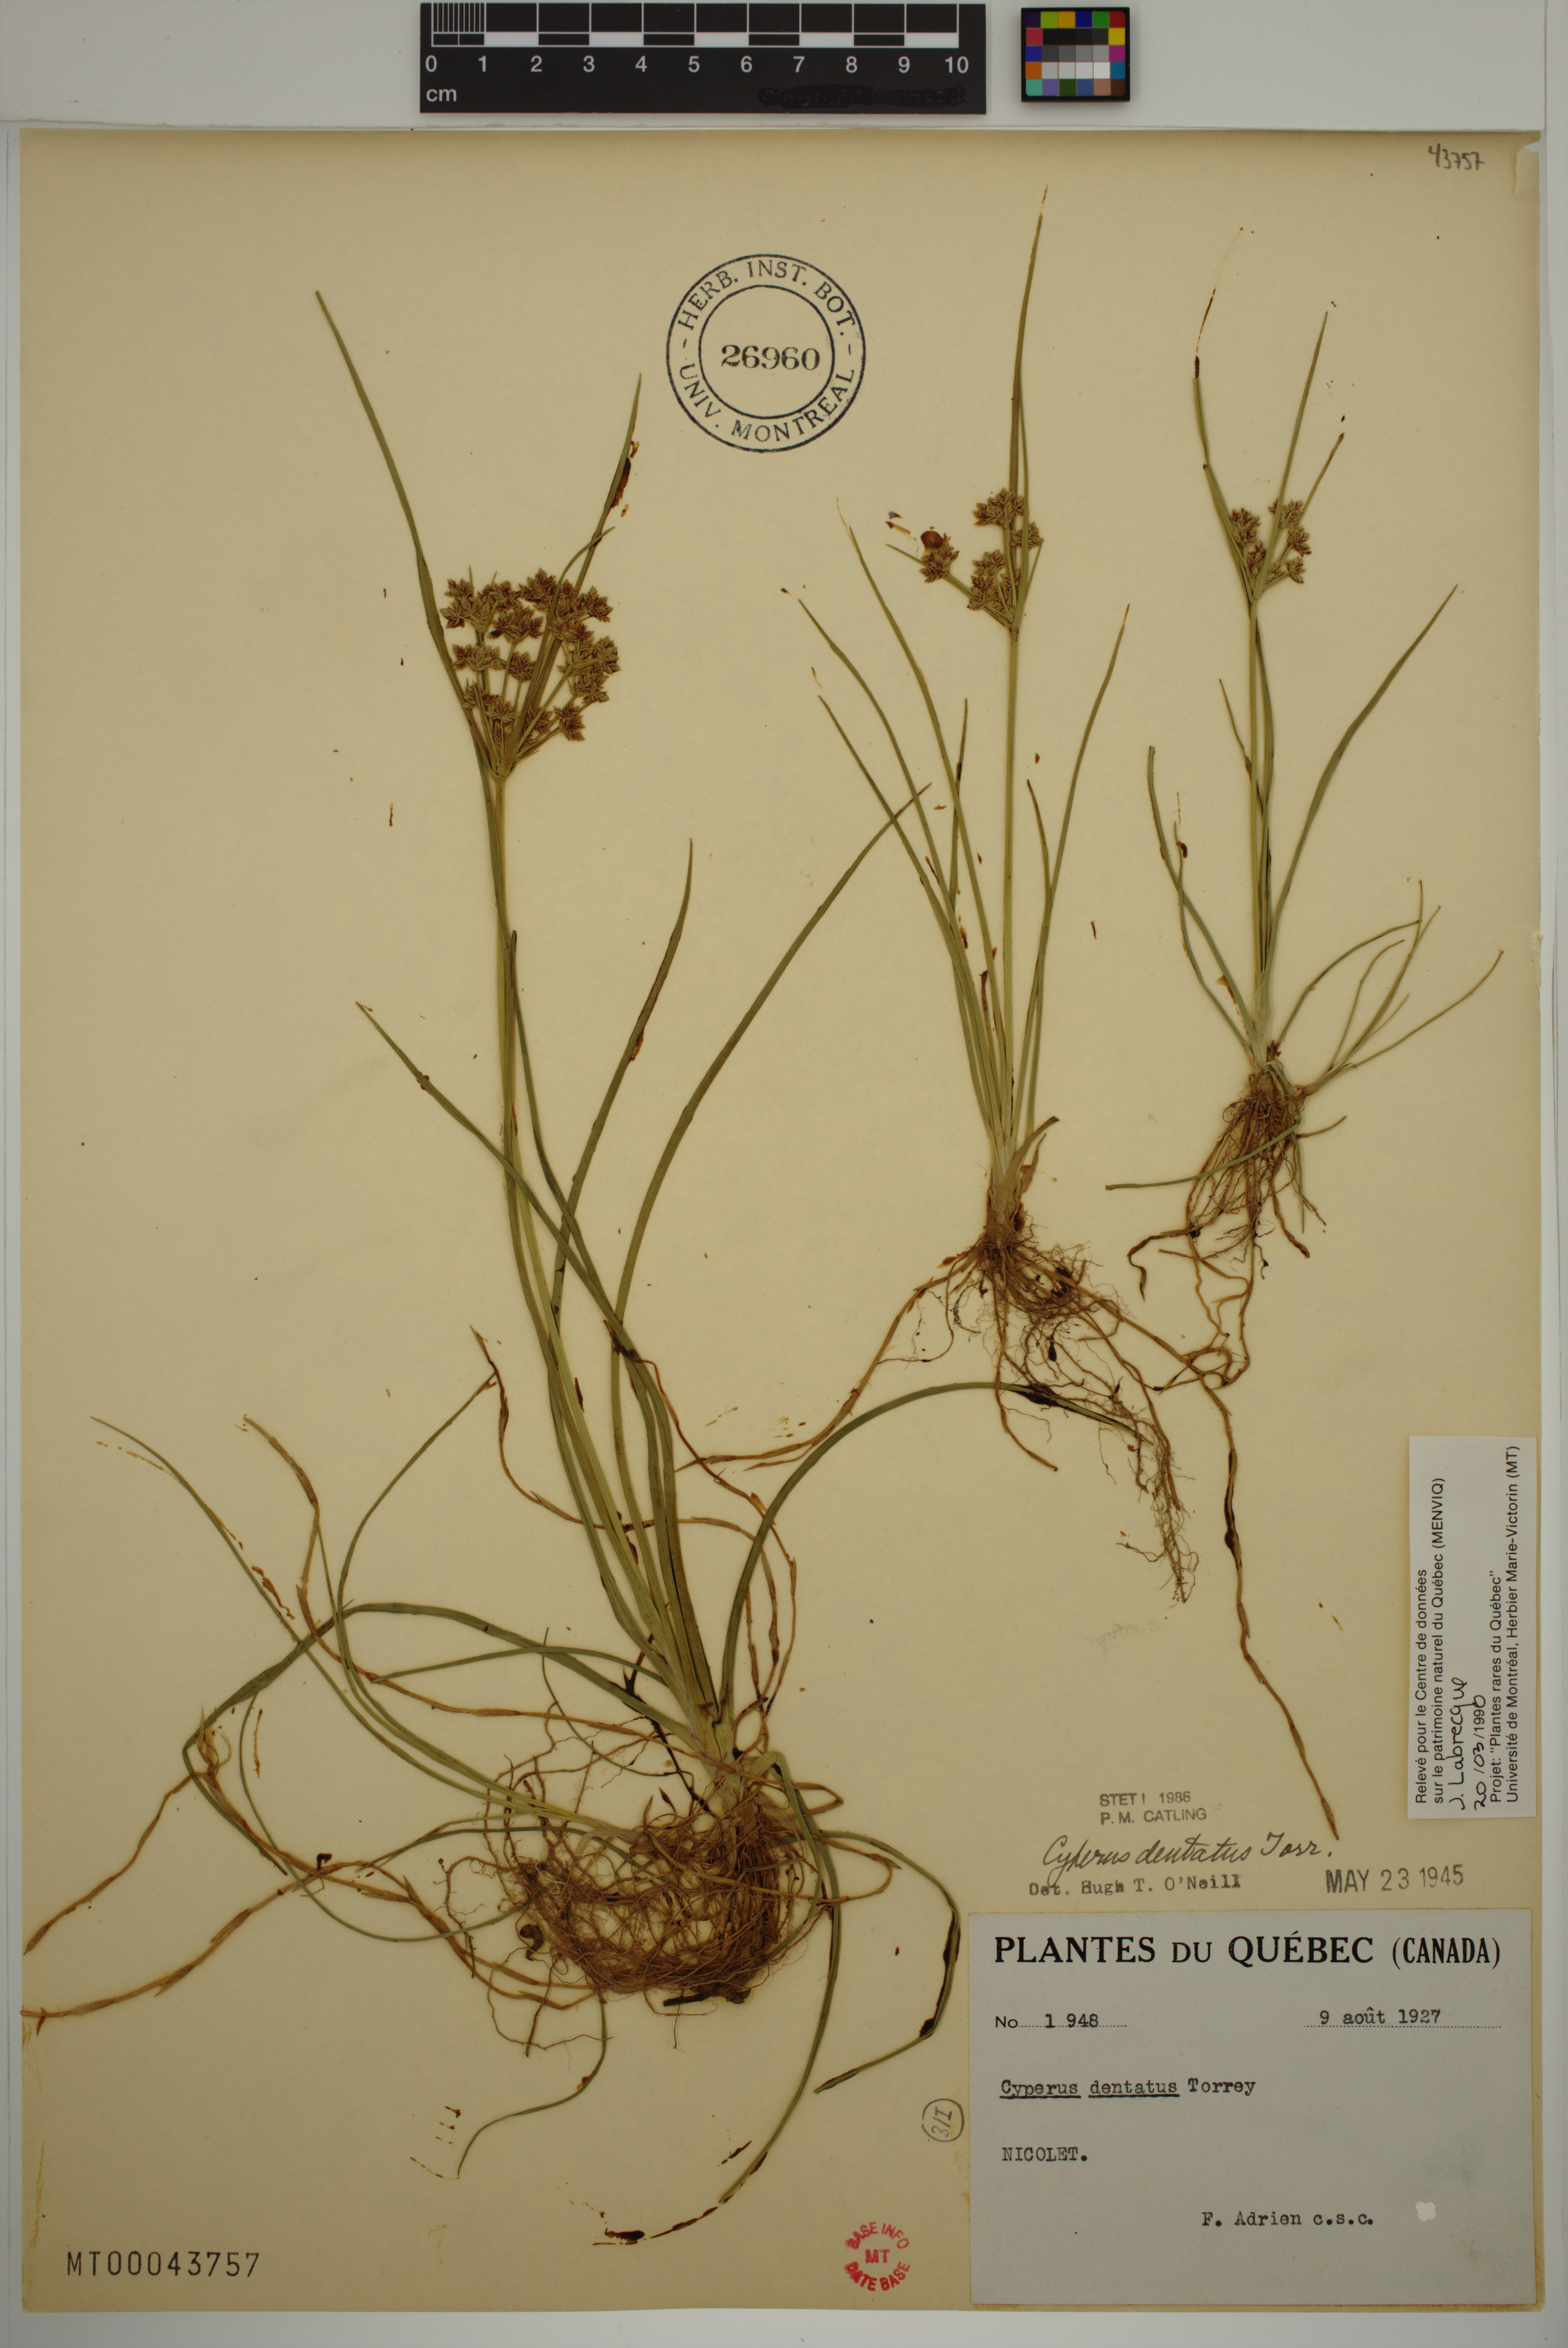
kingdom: Plantae
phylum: Tracheophyta
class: Liliopsida
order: Poales
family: Cyperaceae
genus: Cyperus
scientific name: Cyperus dentatus
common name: Dentate umbrella sedge
